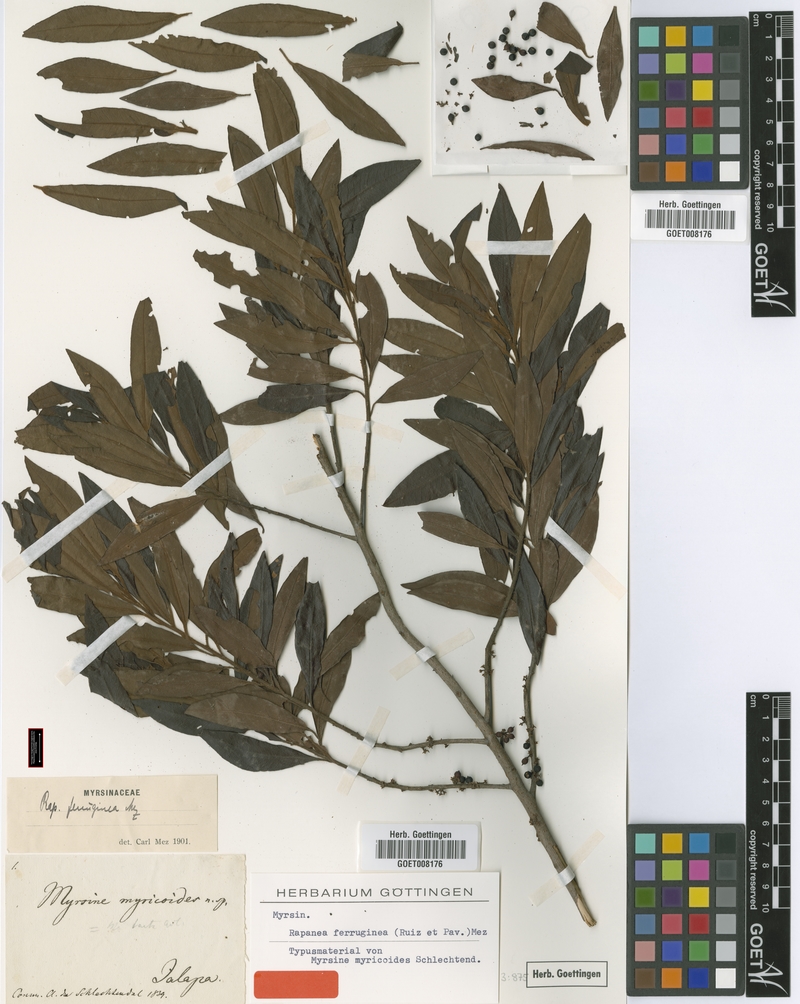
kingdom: Plantae
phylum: Tracheophyta
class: Magnoliopsida
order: Ericales
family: Primulaceae
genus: Myrsine
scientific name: Myrsine coriacea
